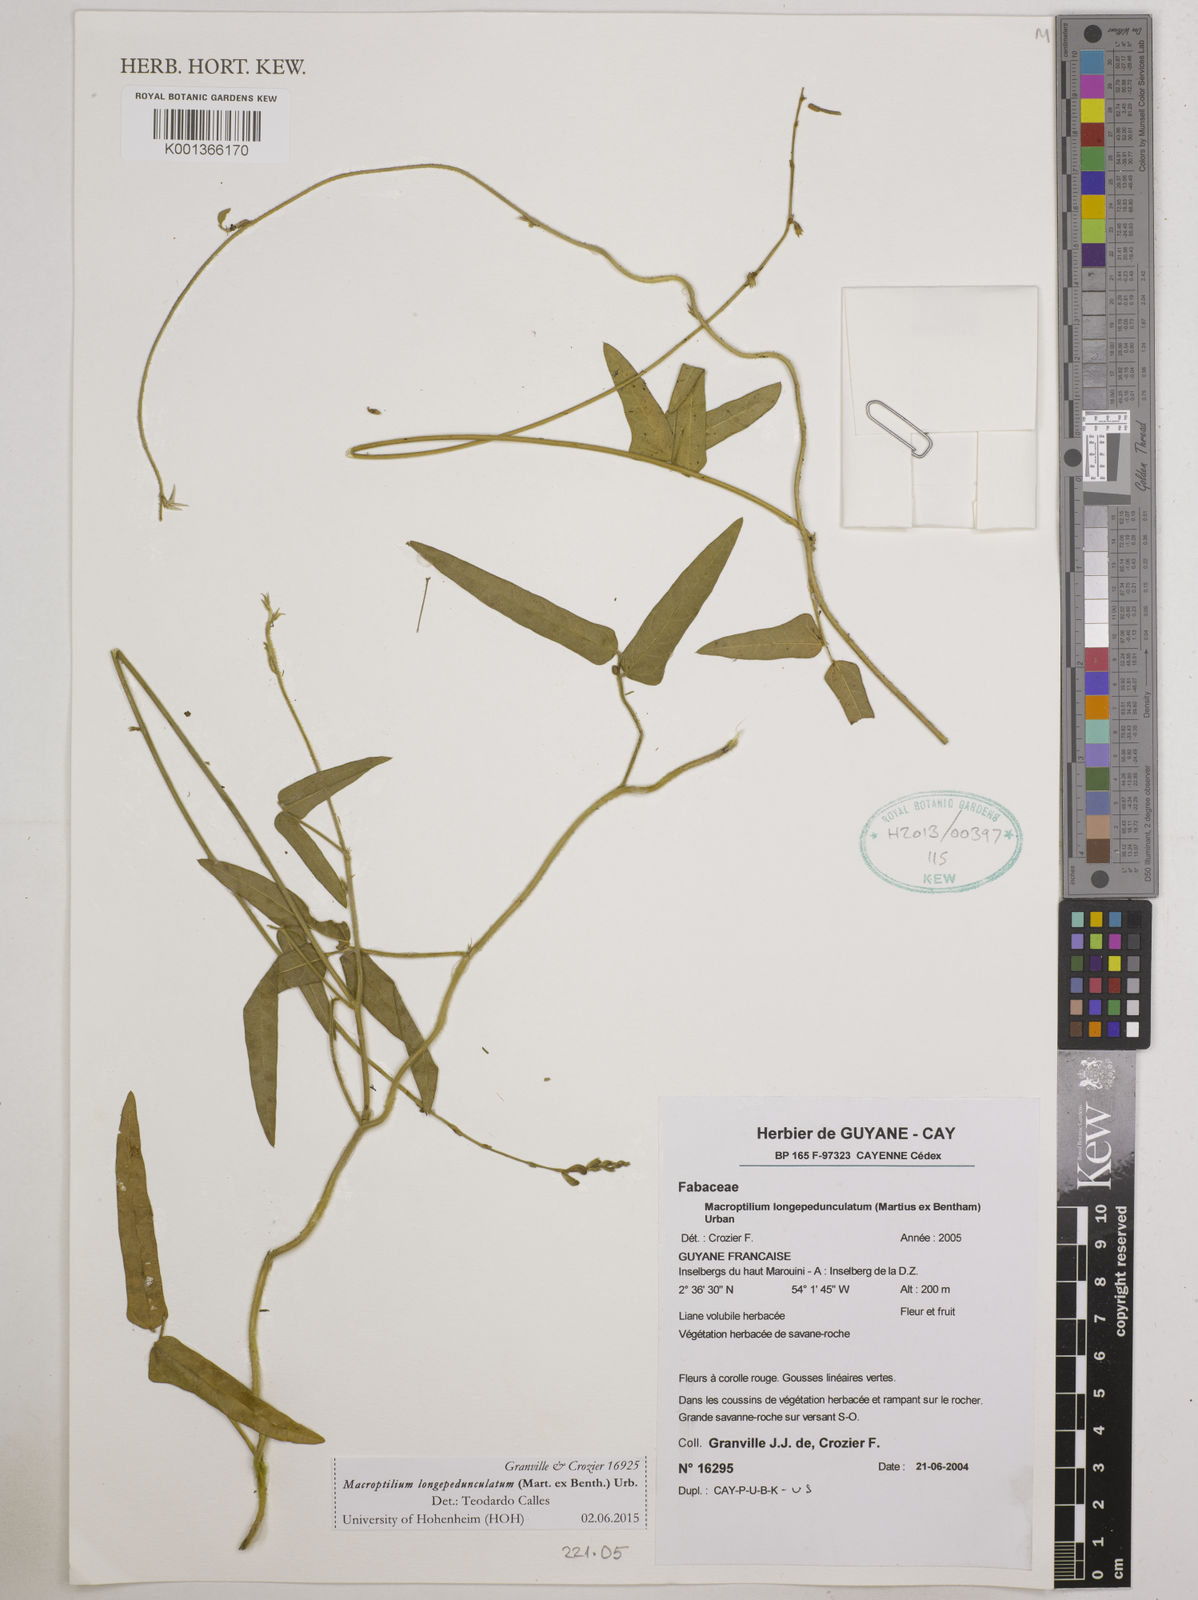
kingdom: Plantae
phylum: Tracheophyta
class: Magnoliopsida
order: Fabales
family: Fabaceae
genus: Macroptilium
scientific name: Macroptilium longepedunculatum
